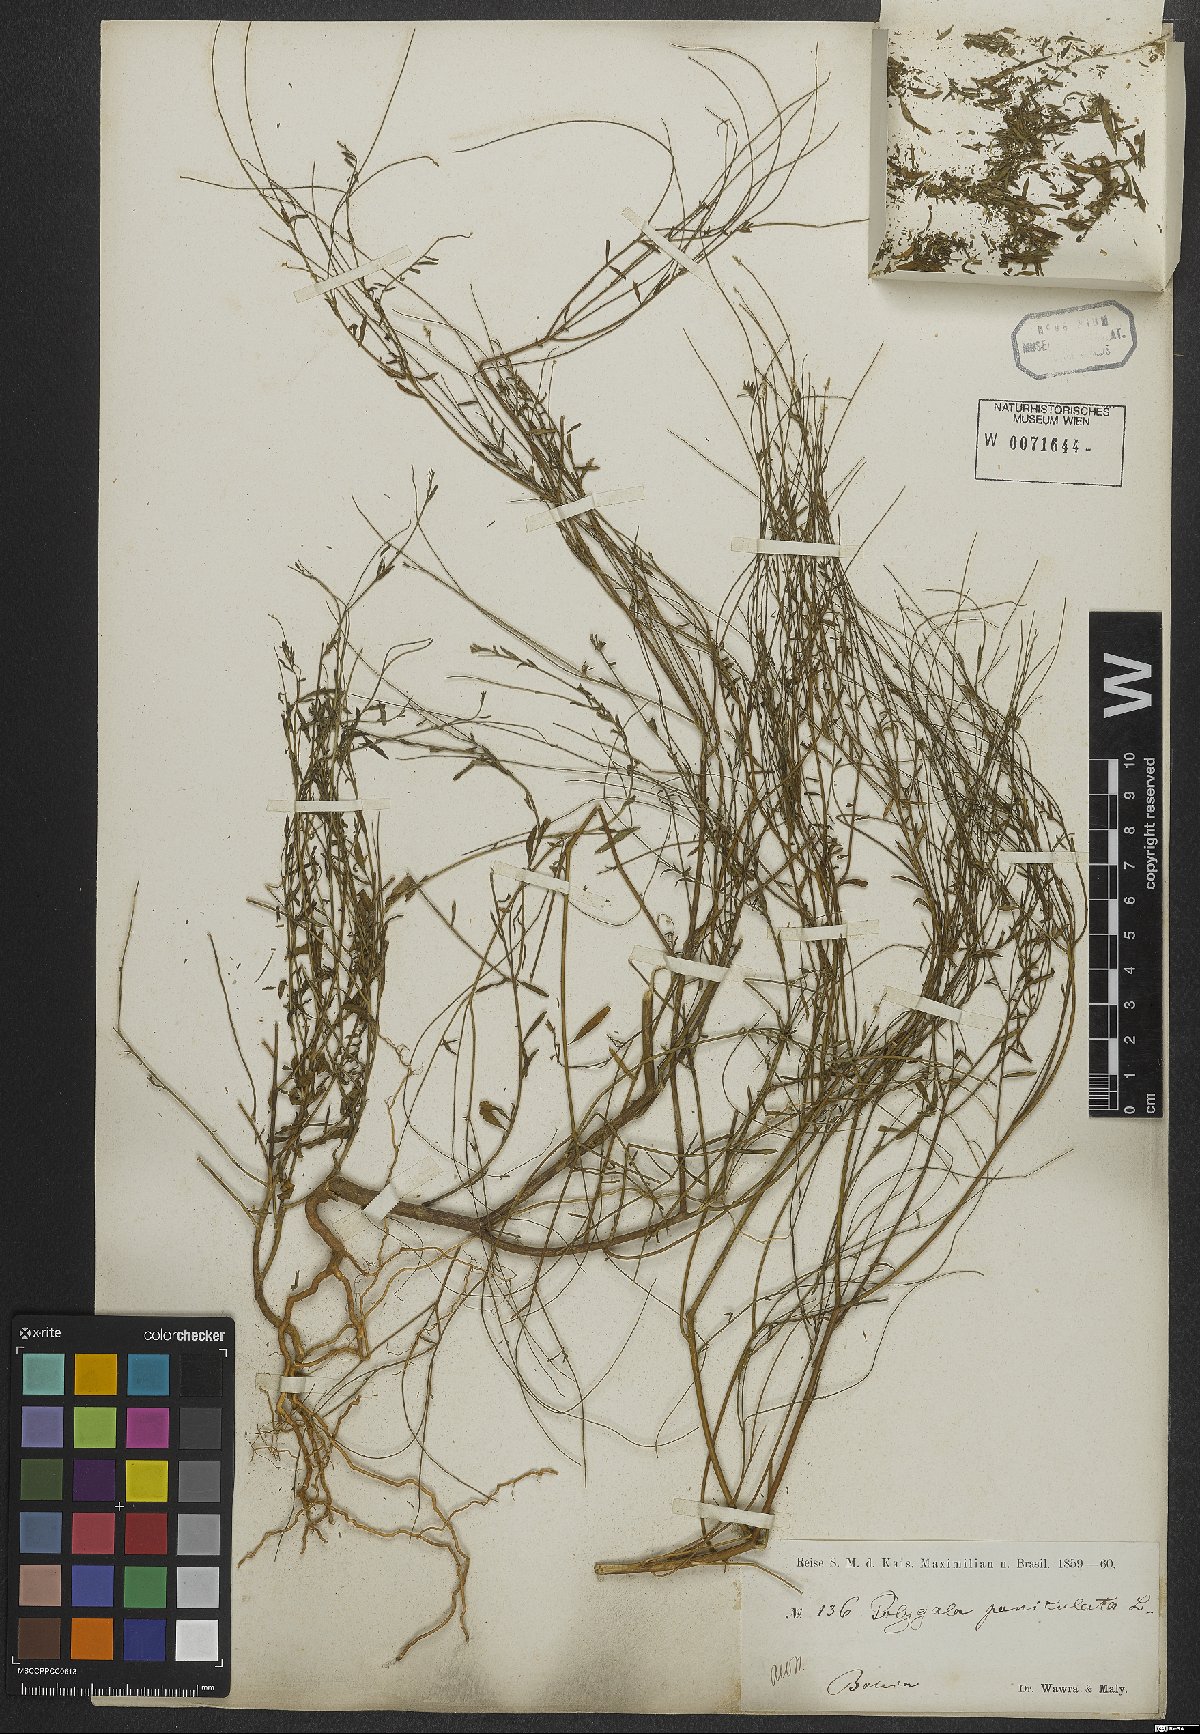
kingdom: Plantae
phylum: Tracheophyta
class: Magnoliopsida
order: Fabales
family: Polygalaceae
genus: Polygala
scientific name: Polygala exilis
